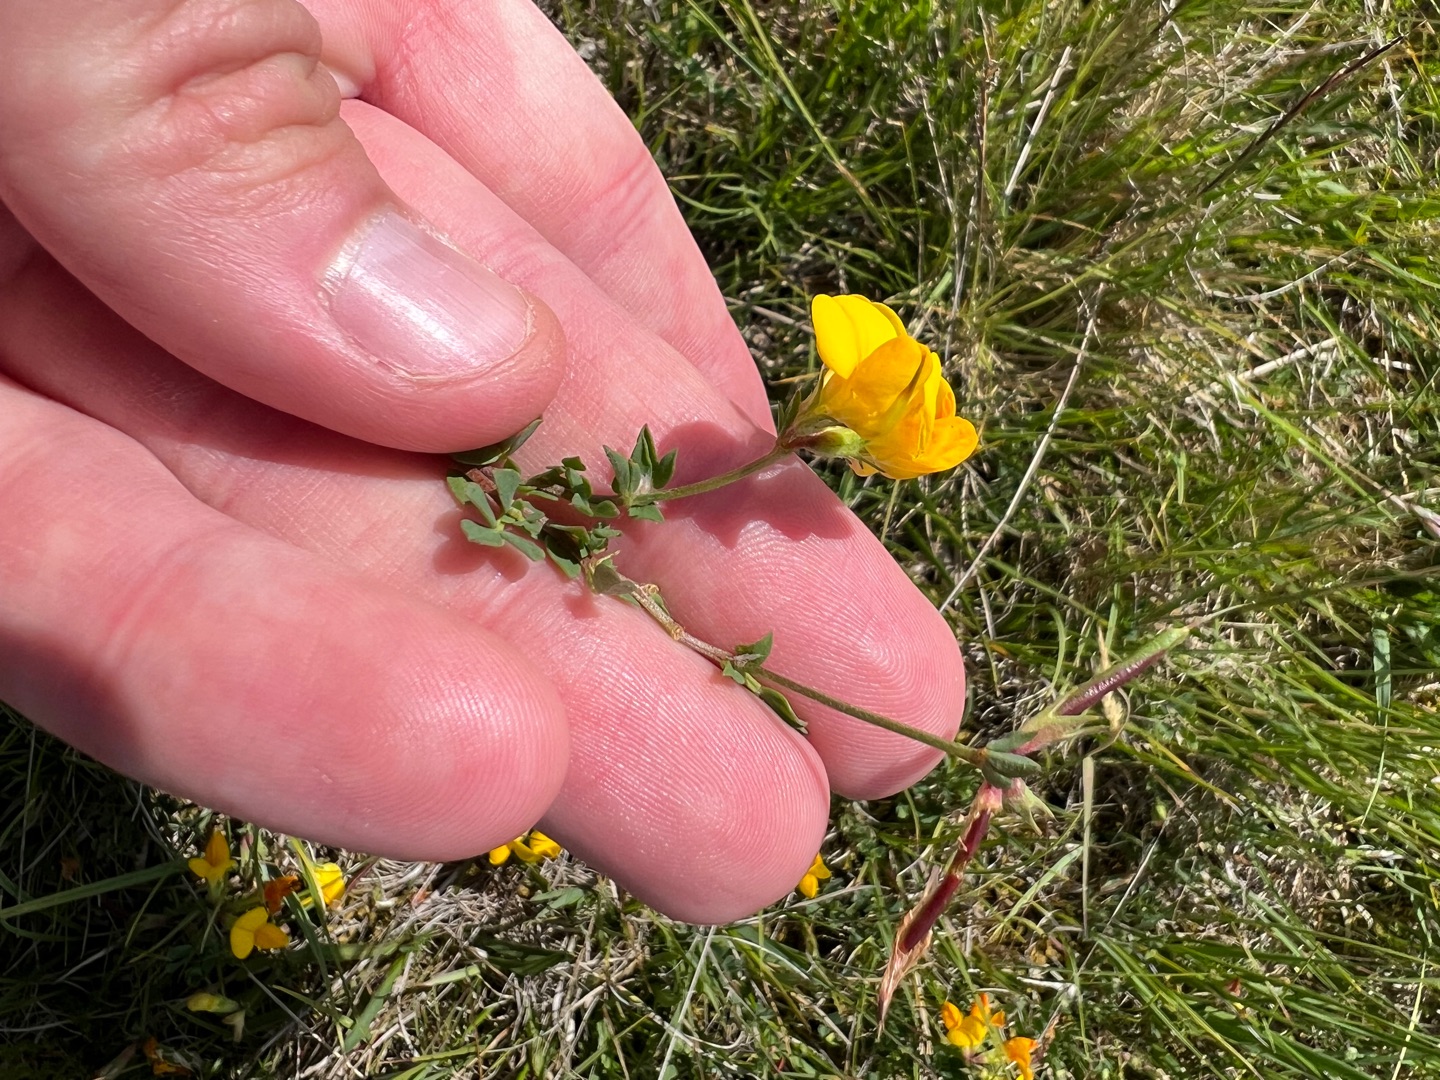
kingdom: Plantae
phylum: Tracheophyta
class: Magnoliopsida
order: Fabales
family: Fabaceae
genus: Lotus
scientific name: Lotus corniculatus
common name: Almindelig kællingetand
